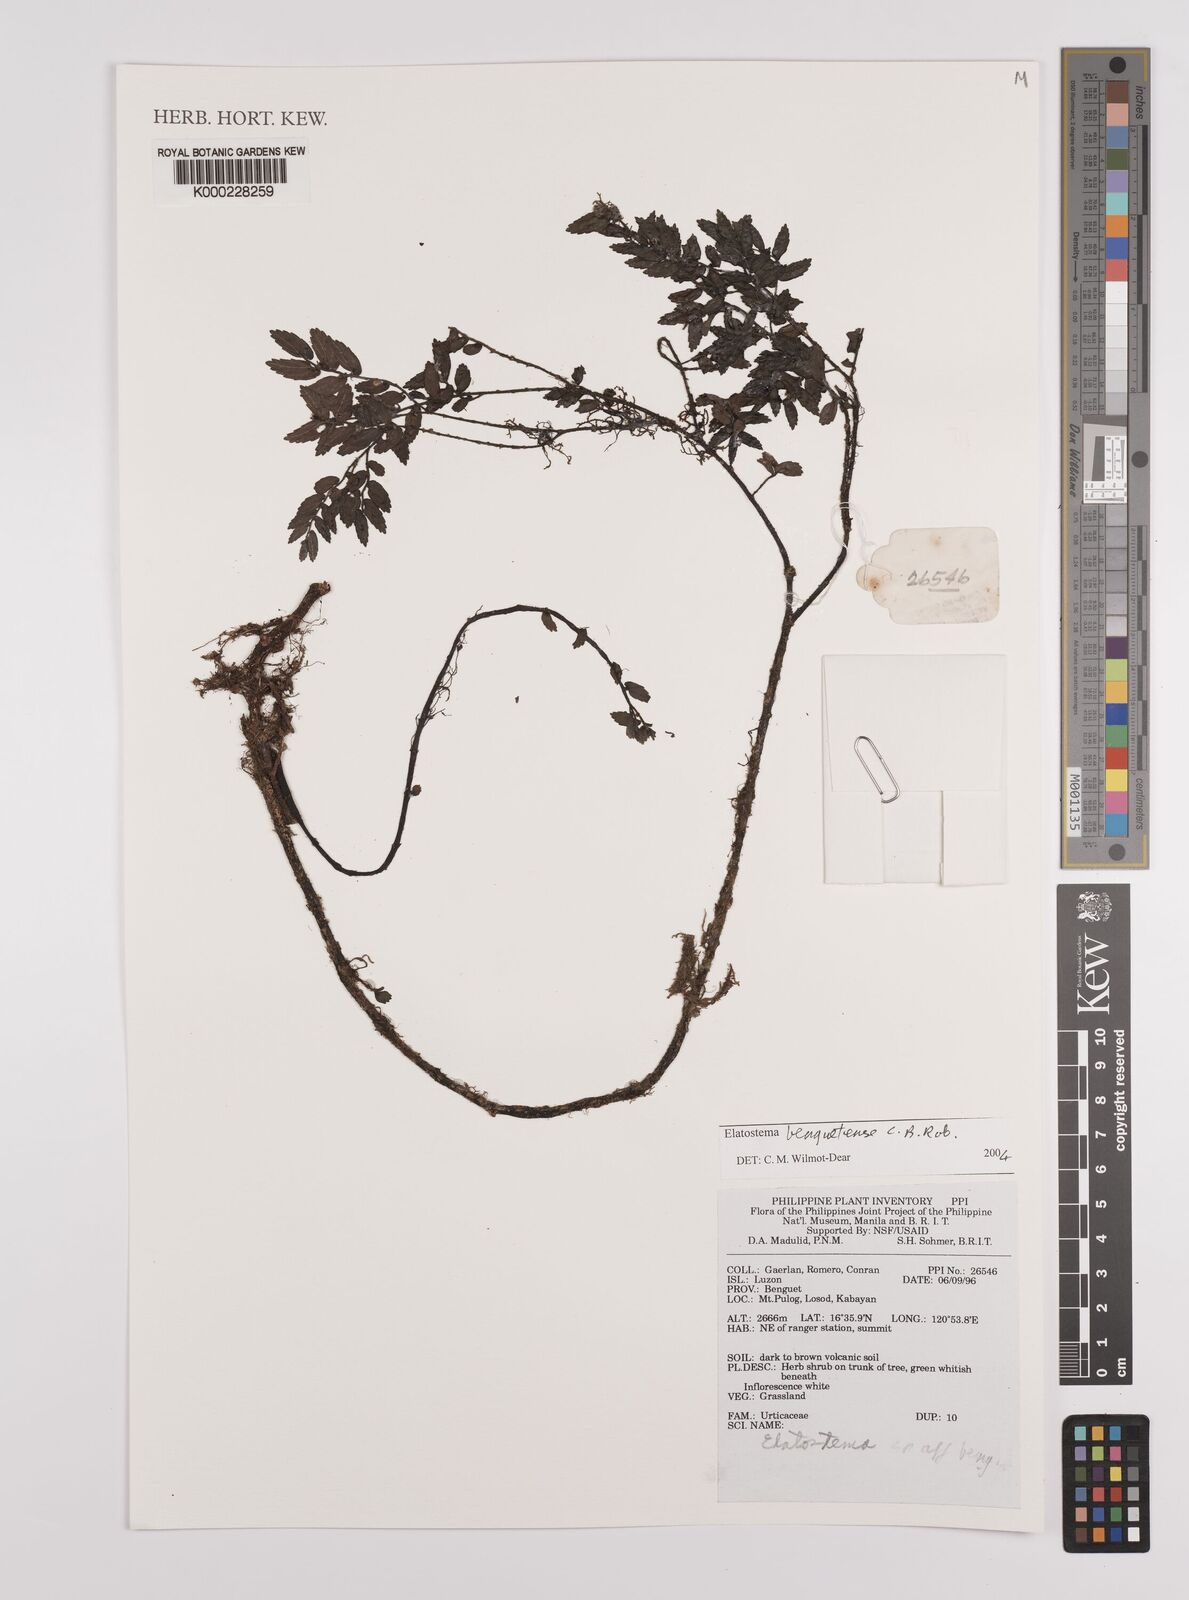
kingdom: Plantae
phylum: Tracheophyta
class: Magnoliopsida
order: Rosales
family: Urticaceae
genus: Elatostema
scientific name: Elatostema benguetense
